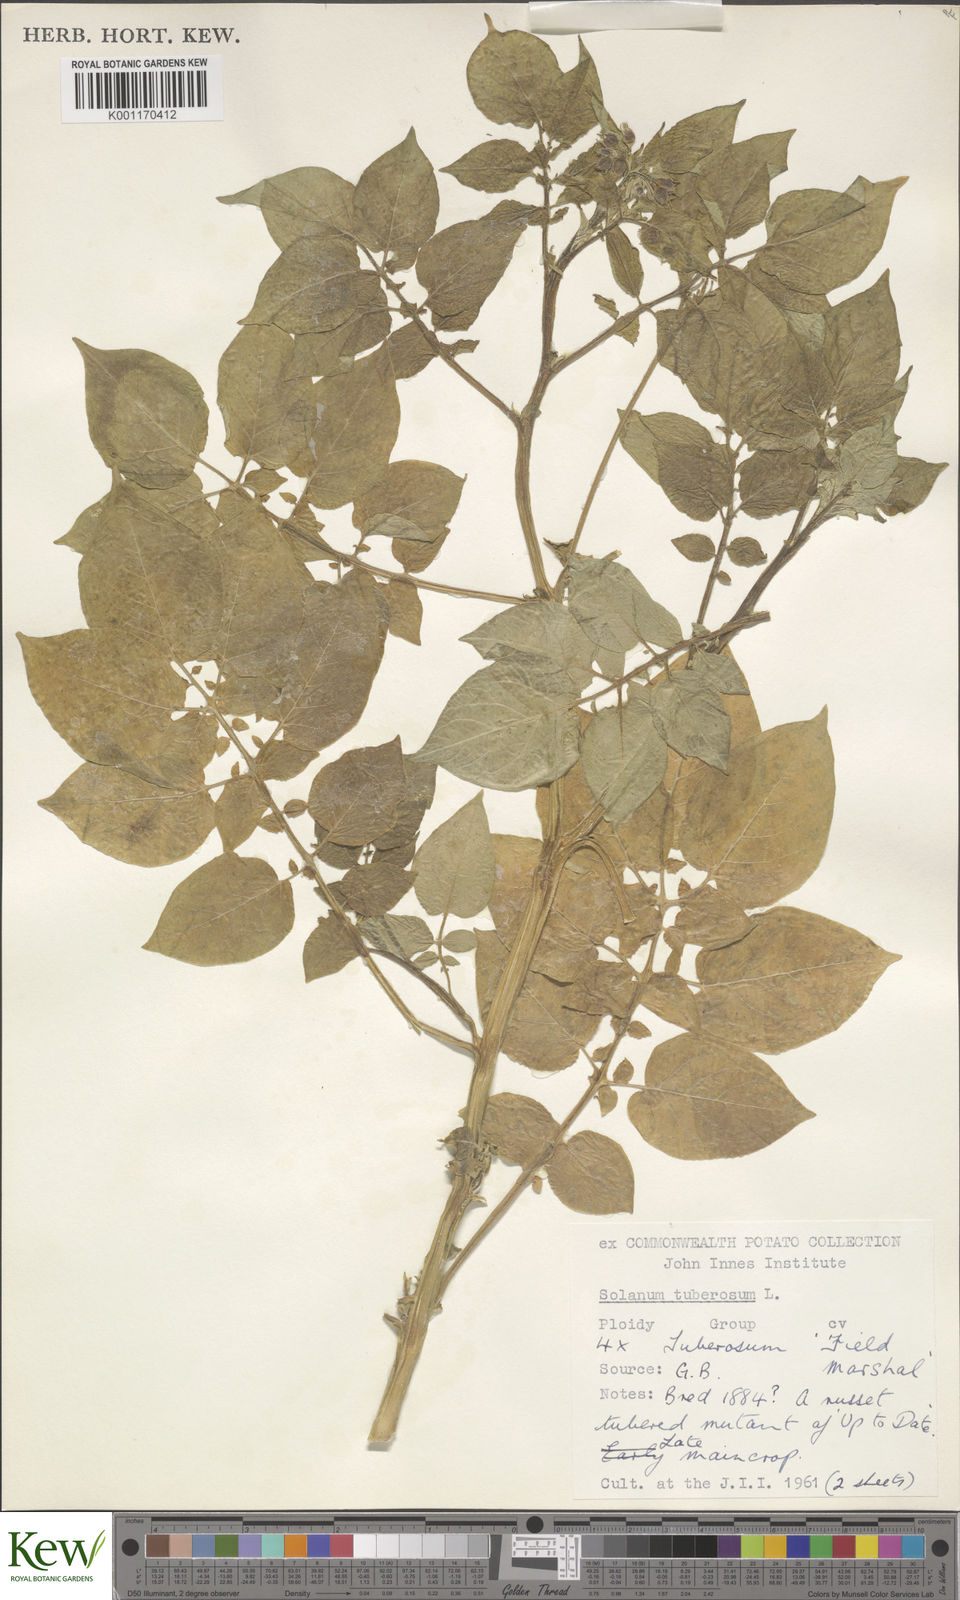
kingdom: Plantae
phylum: Tracheophyta
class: Magnoliopsida
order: Solanales
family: Solanaceae
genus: Solanum
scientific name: Solanum tuberosum
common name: Potato
